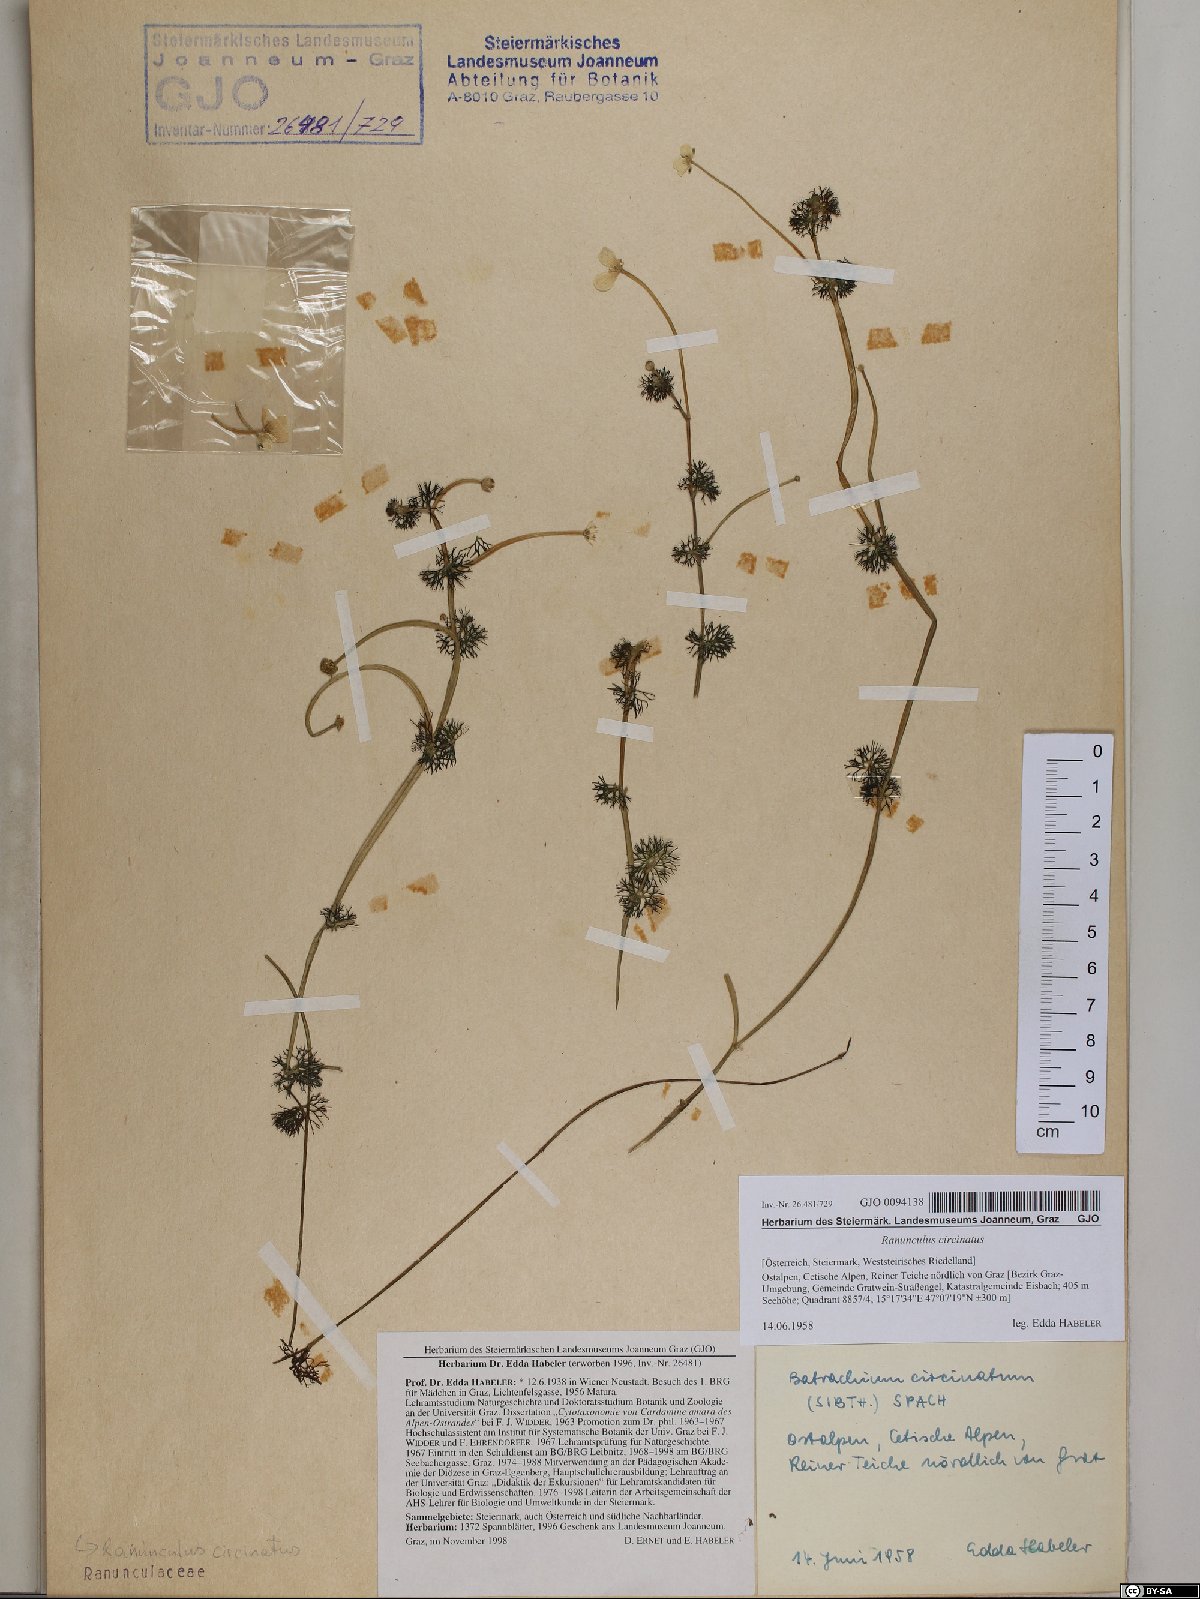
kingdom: Plantae
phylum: Tracheophyta
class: Magnoliopsida
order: Ranunculales
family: Ranunculaceae
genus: Ranunculus
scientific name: Ranunculus circinatus
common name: Fan-leaved water-crowfoot
